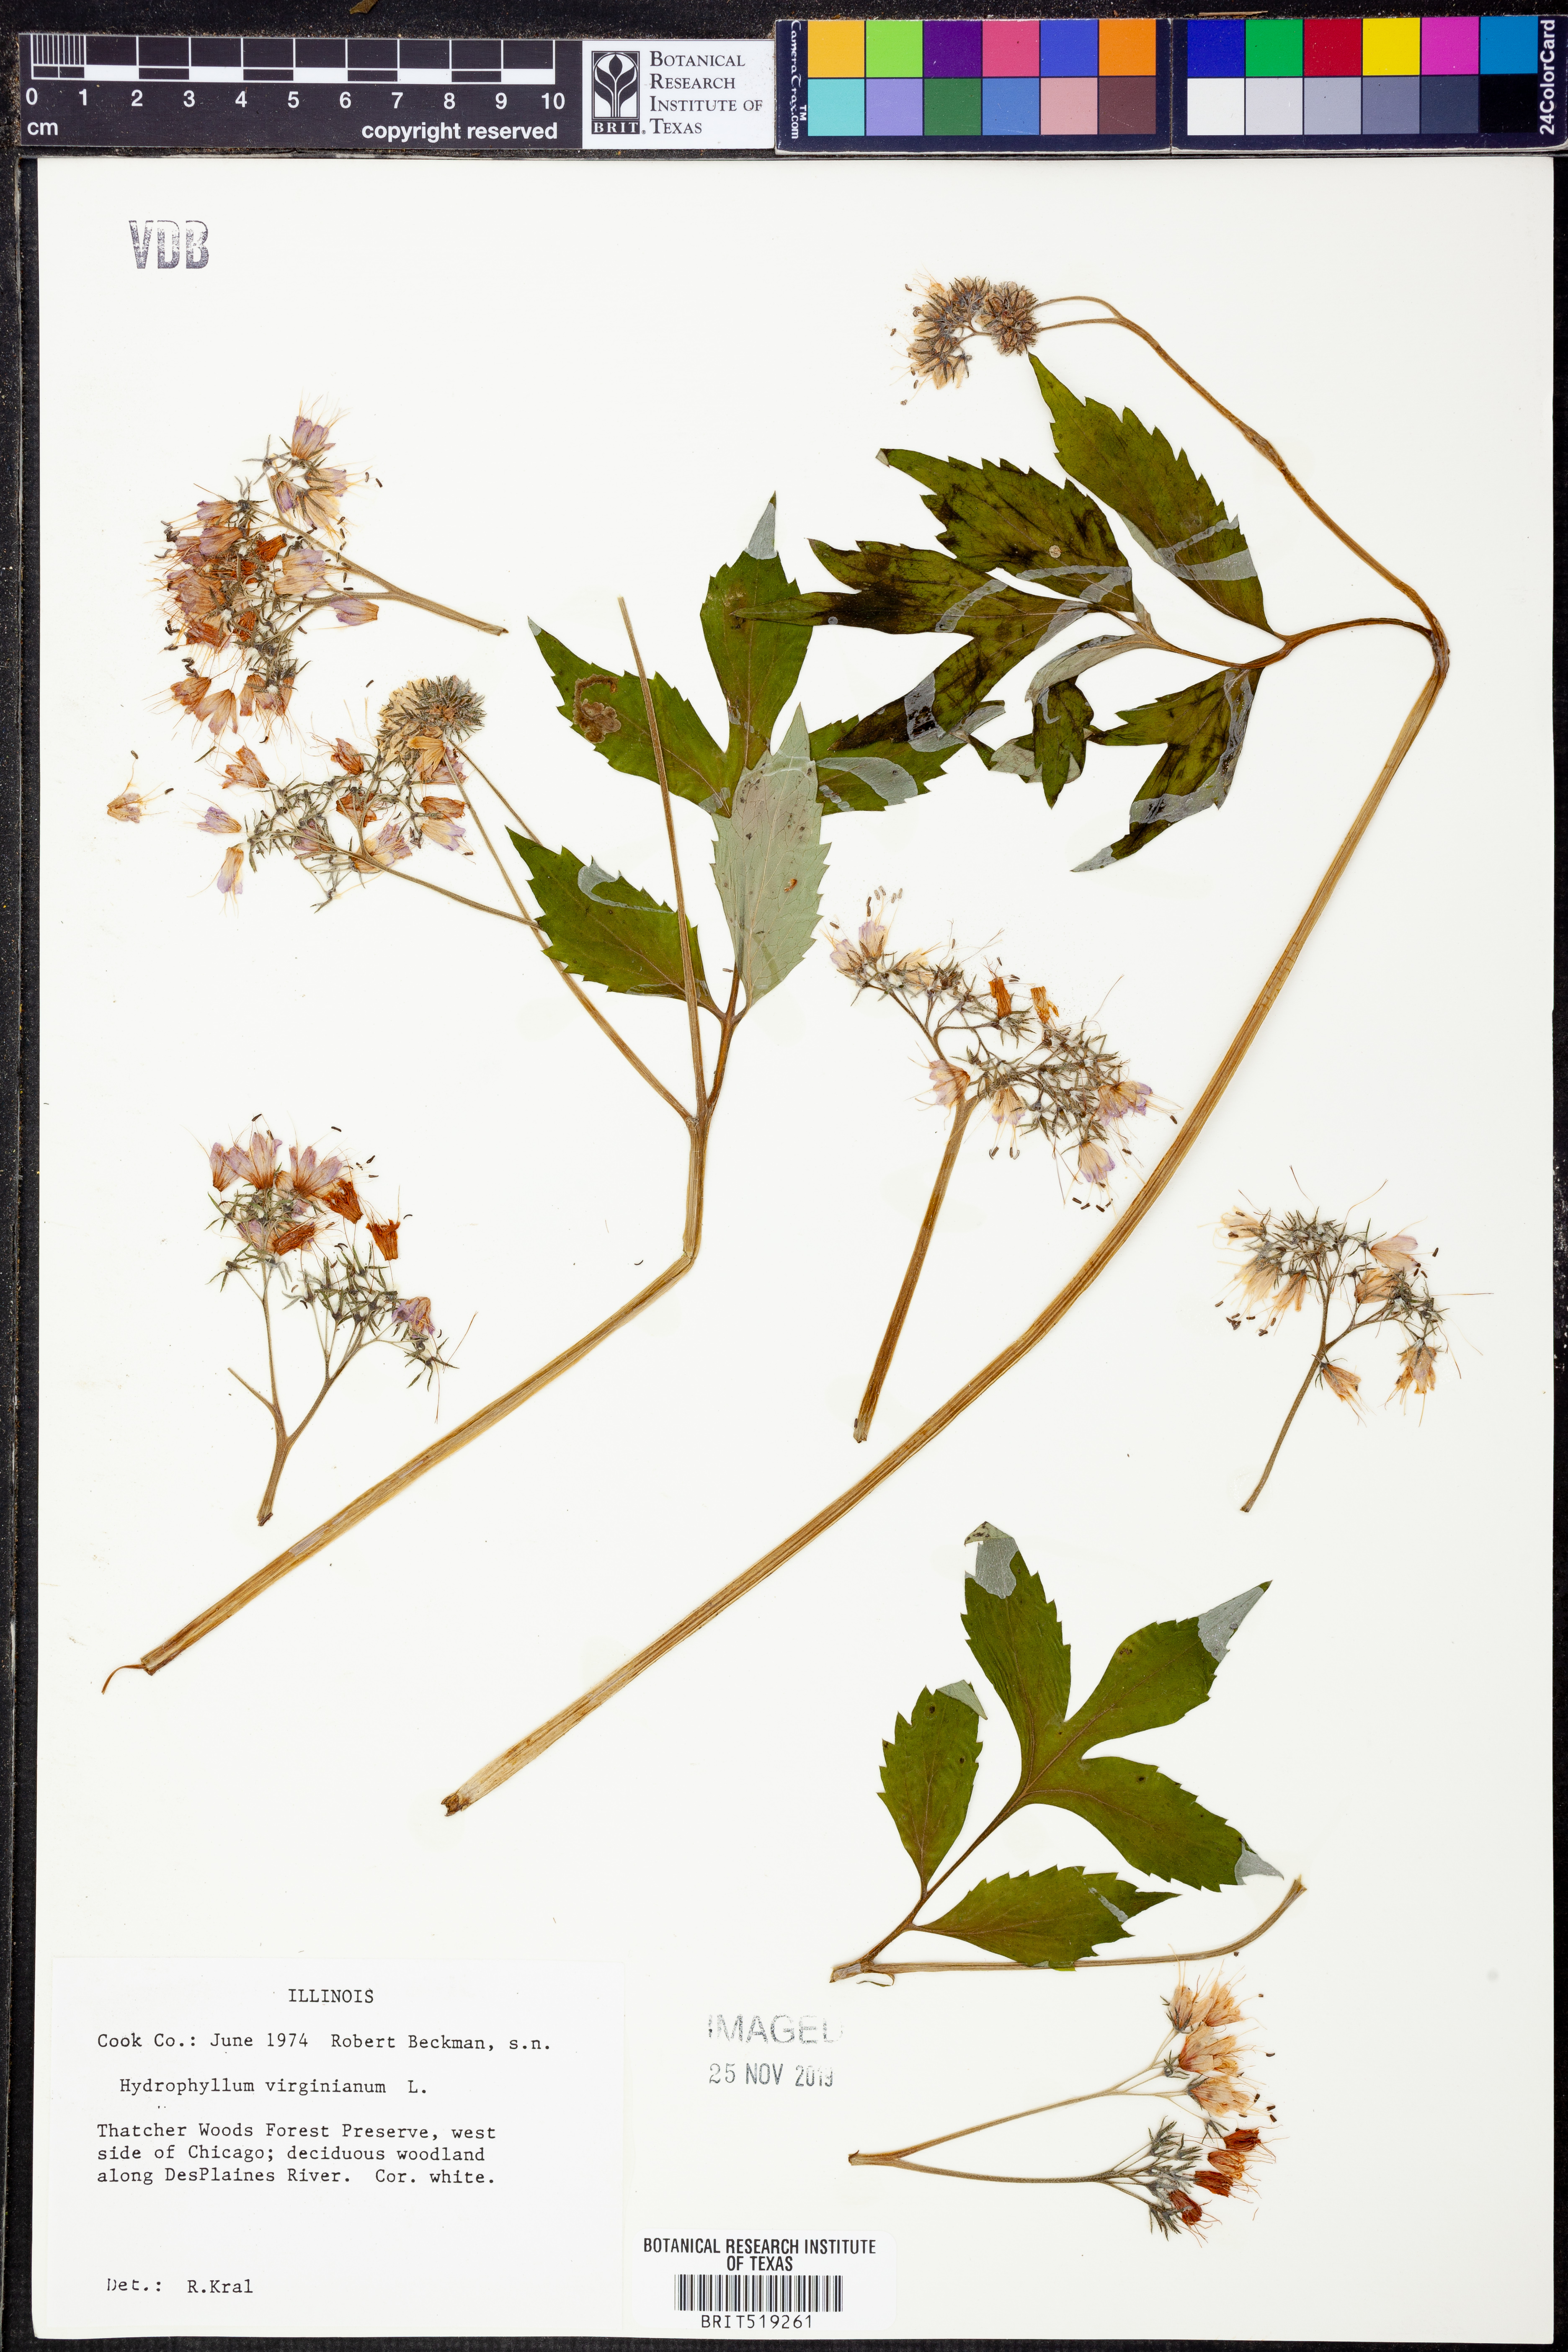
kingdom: Plantae
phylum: Tracheophyta
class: Magnoliopsida
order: Boraginales
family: Hydrophyllaceae
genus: Hydrophyllum
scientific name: Hydrophyllum virginianum
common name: Virginia waterleaf
